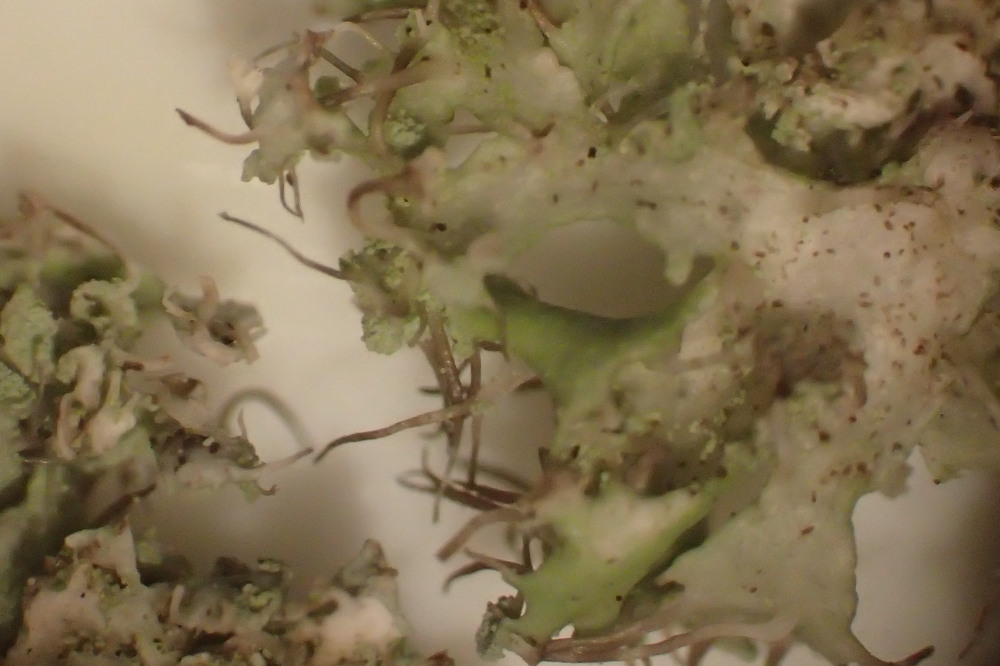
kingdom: Fungi
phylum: Ascomycota
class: Lecanoromycetes
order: Caliciales
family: Physciaceae
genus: Physcia
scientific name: Physcia tenella
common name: spæd rosetlav
